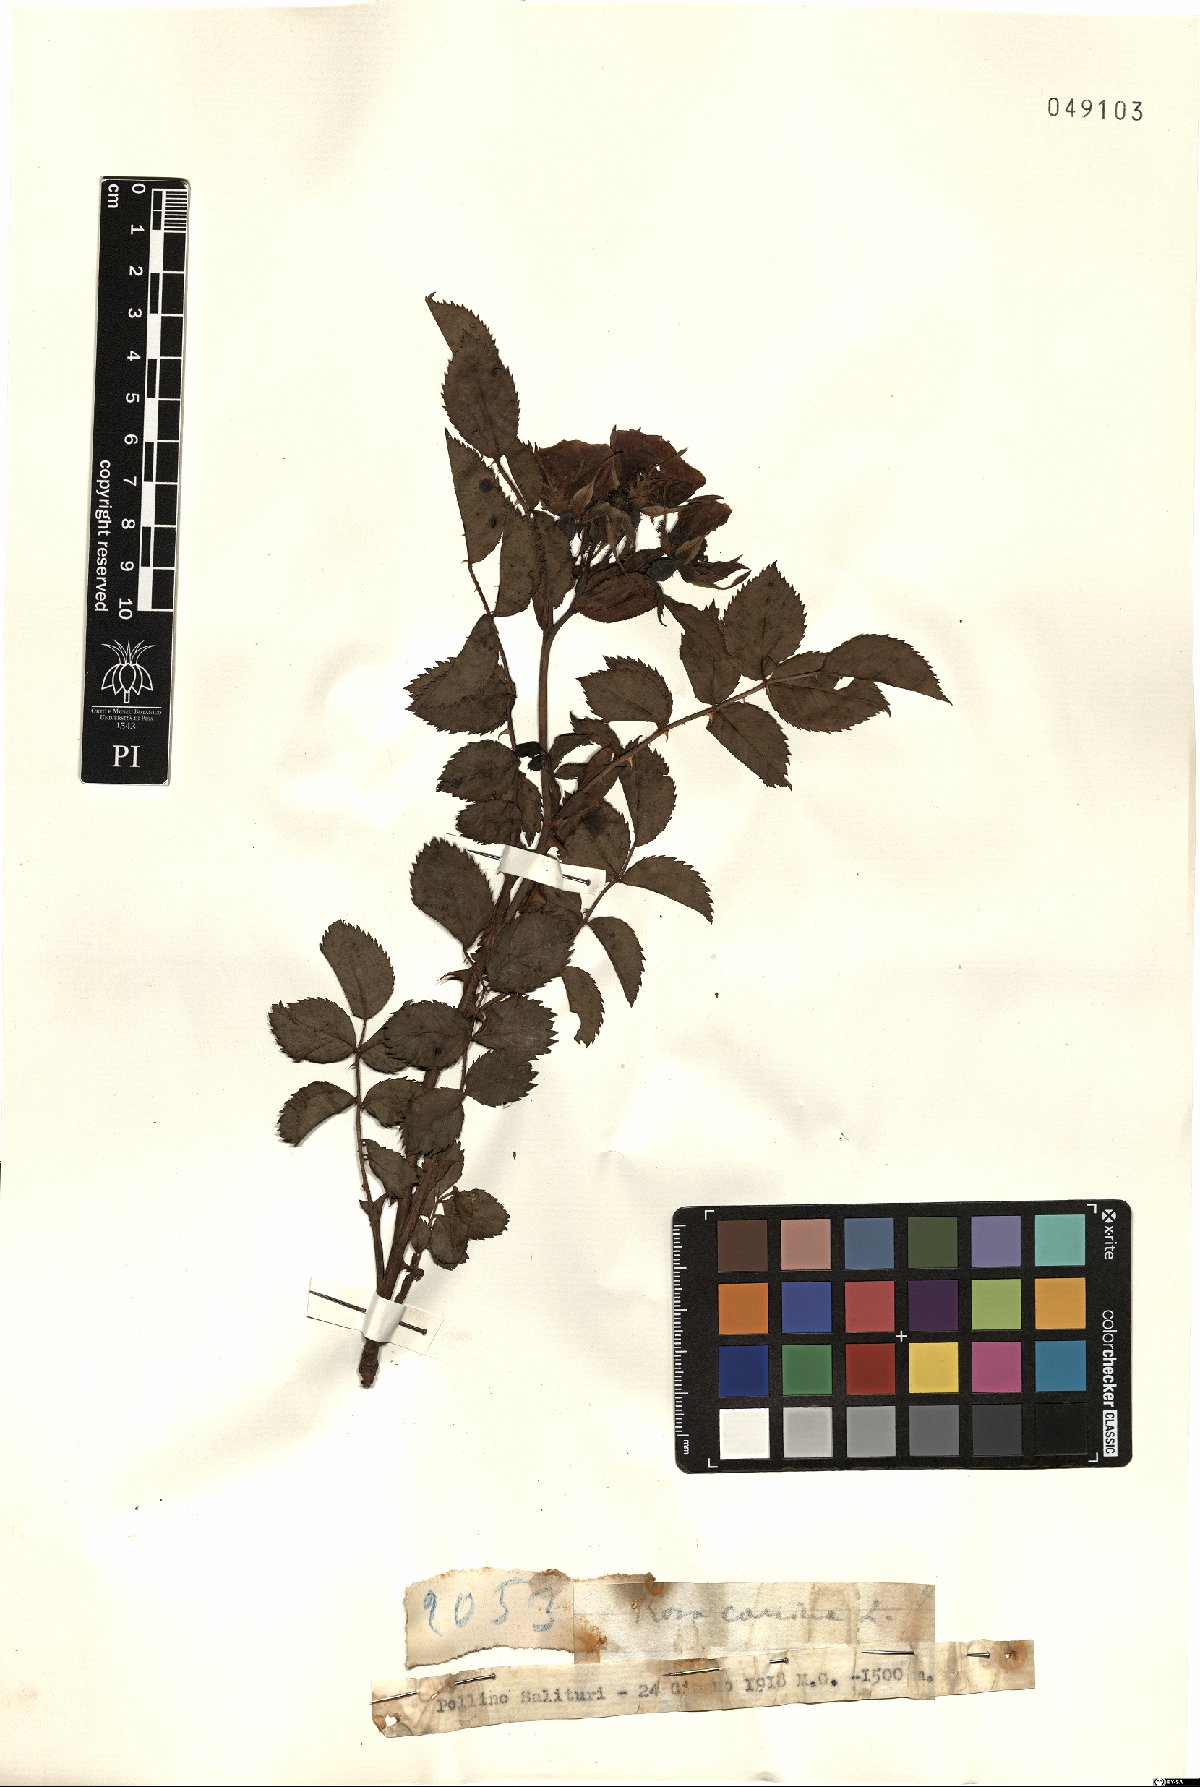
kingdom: Plantae
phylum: Tracheophyta
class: Magnoliopsida
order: Rosales
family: Rosaceae
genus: Rosa
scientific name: Rosa canina
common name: Dog rose
